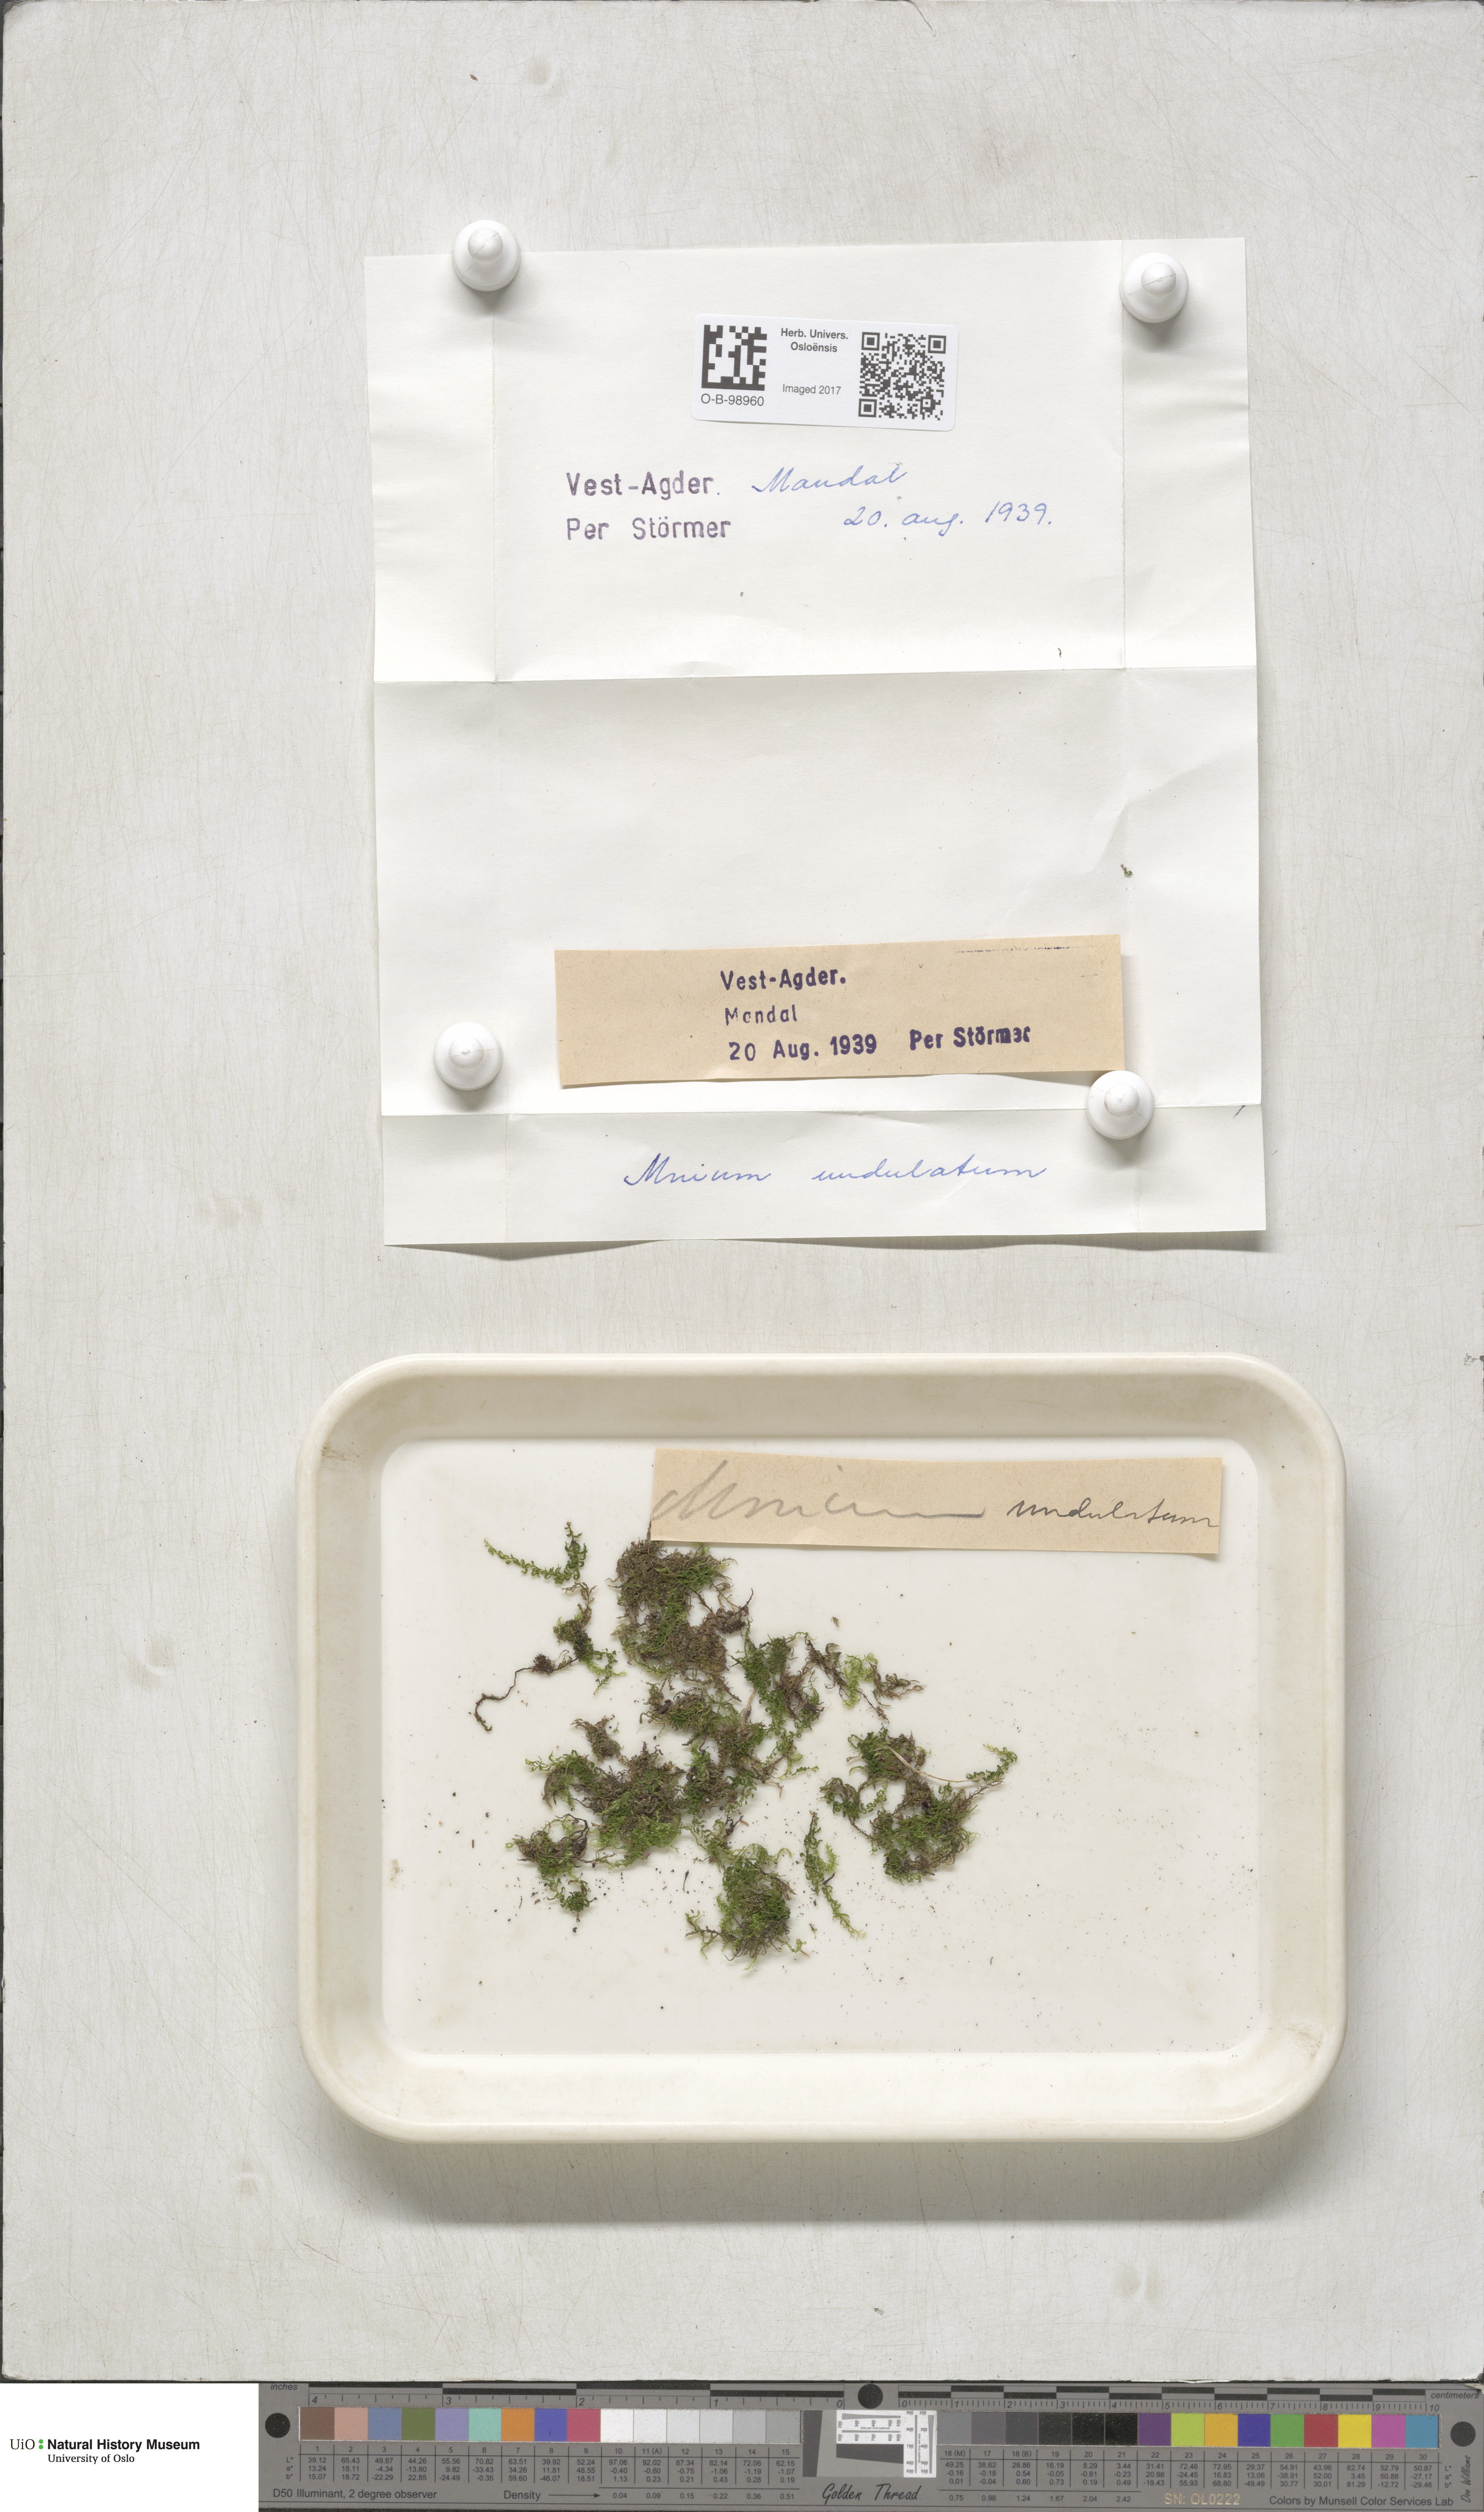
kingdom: Plantae
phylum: Bryophyta
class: Bryopsida
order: Bryales
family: Mniaceae
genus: Plagiomnium
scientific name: Plagiomnium undulatum
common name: Hart's-tongue thyme-moss
